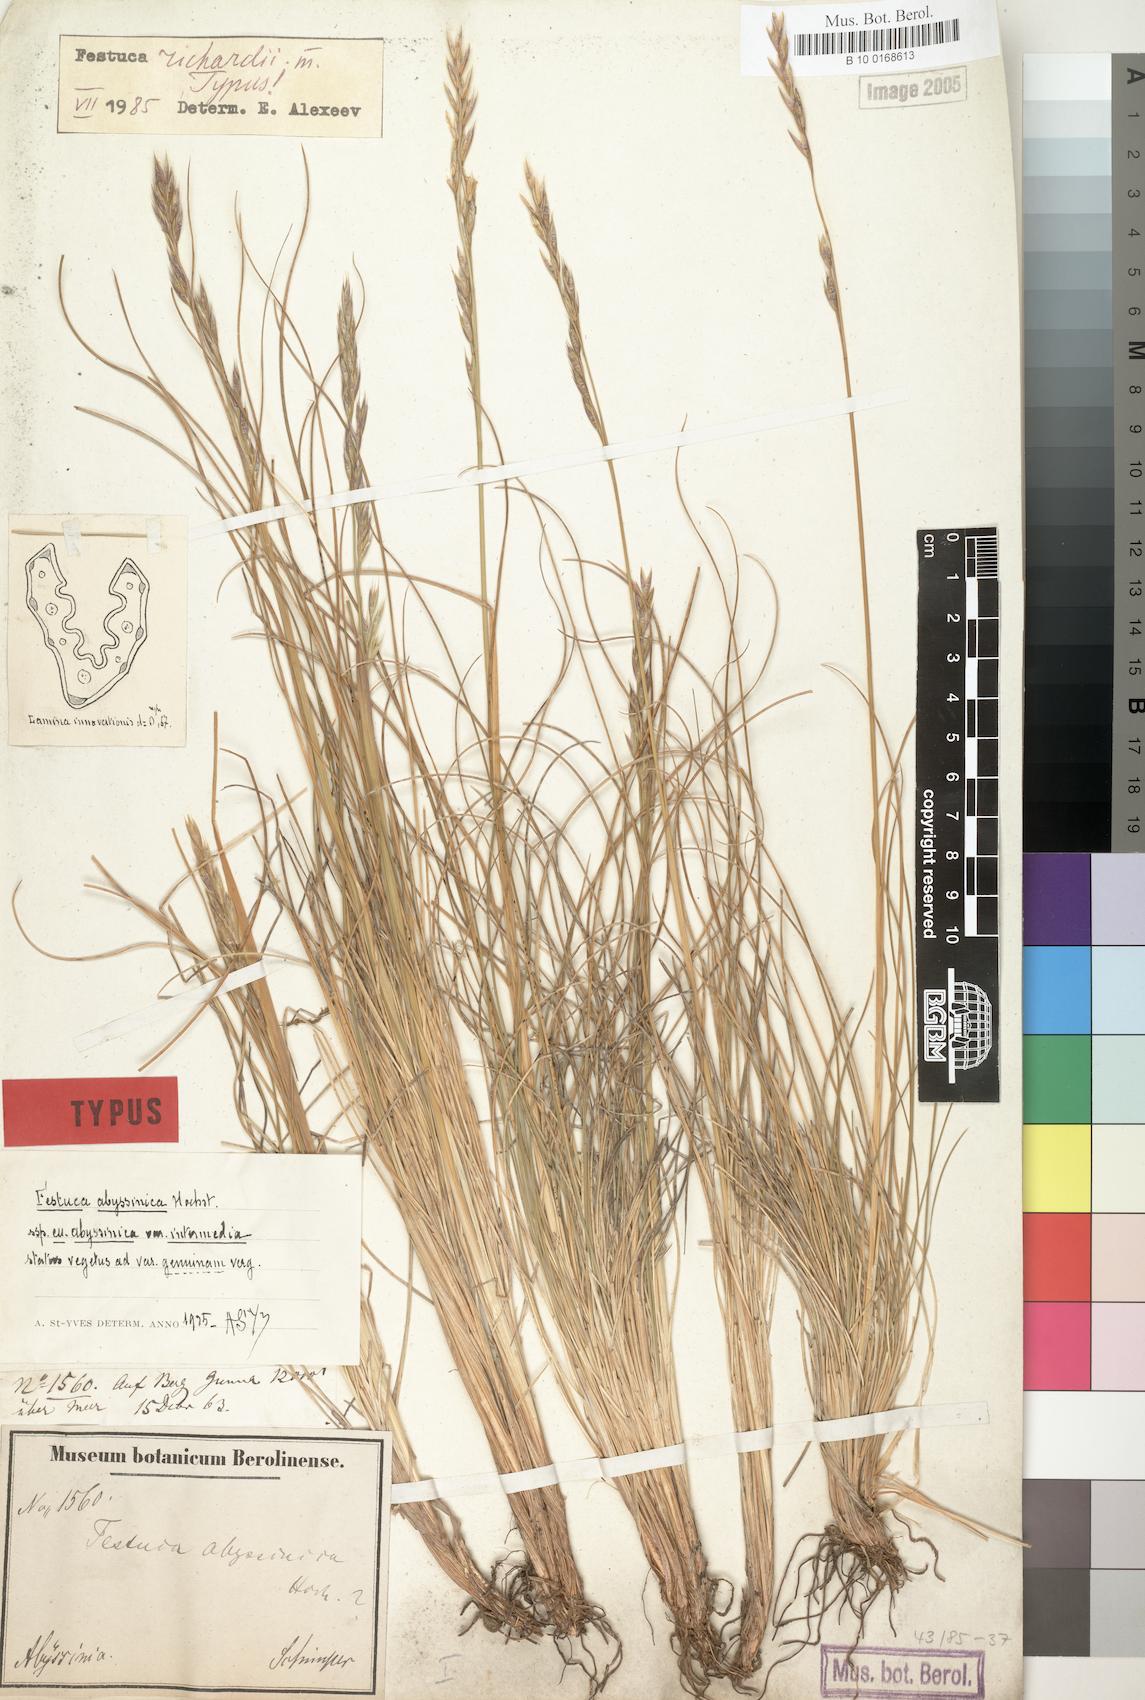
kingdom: Plantae
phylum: Tracheophyta
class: Liliopsida
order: Poales
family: Poaceae
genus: Festuca
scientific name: Festuca richardii
